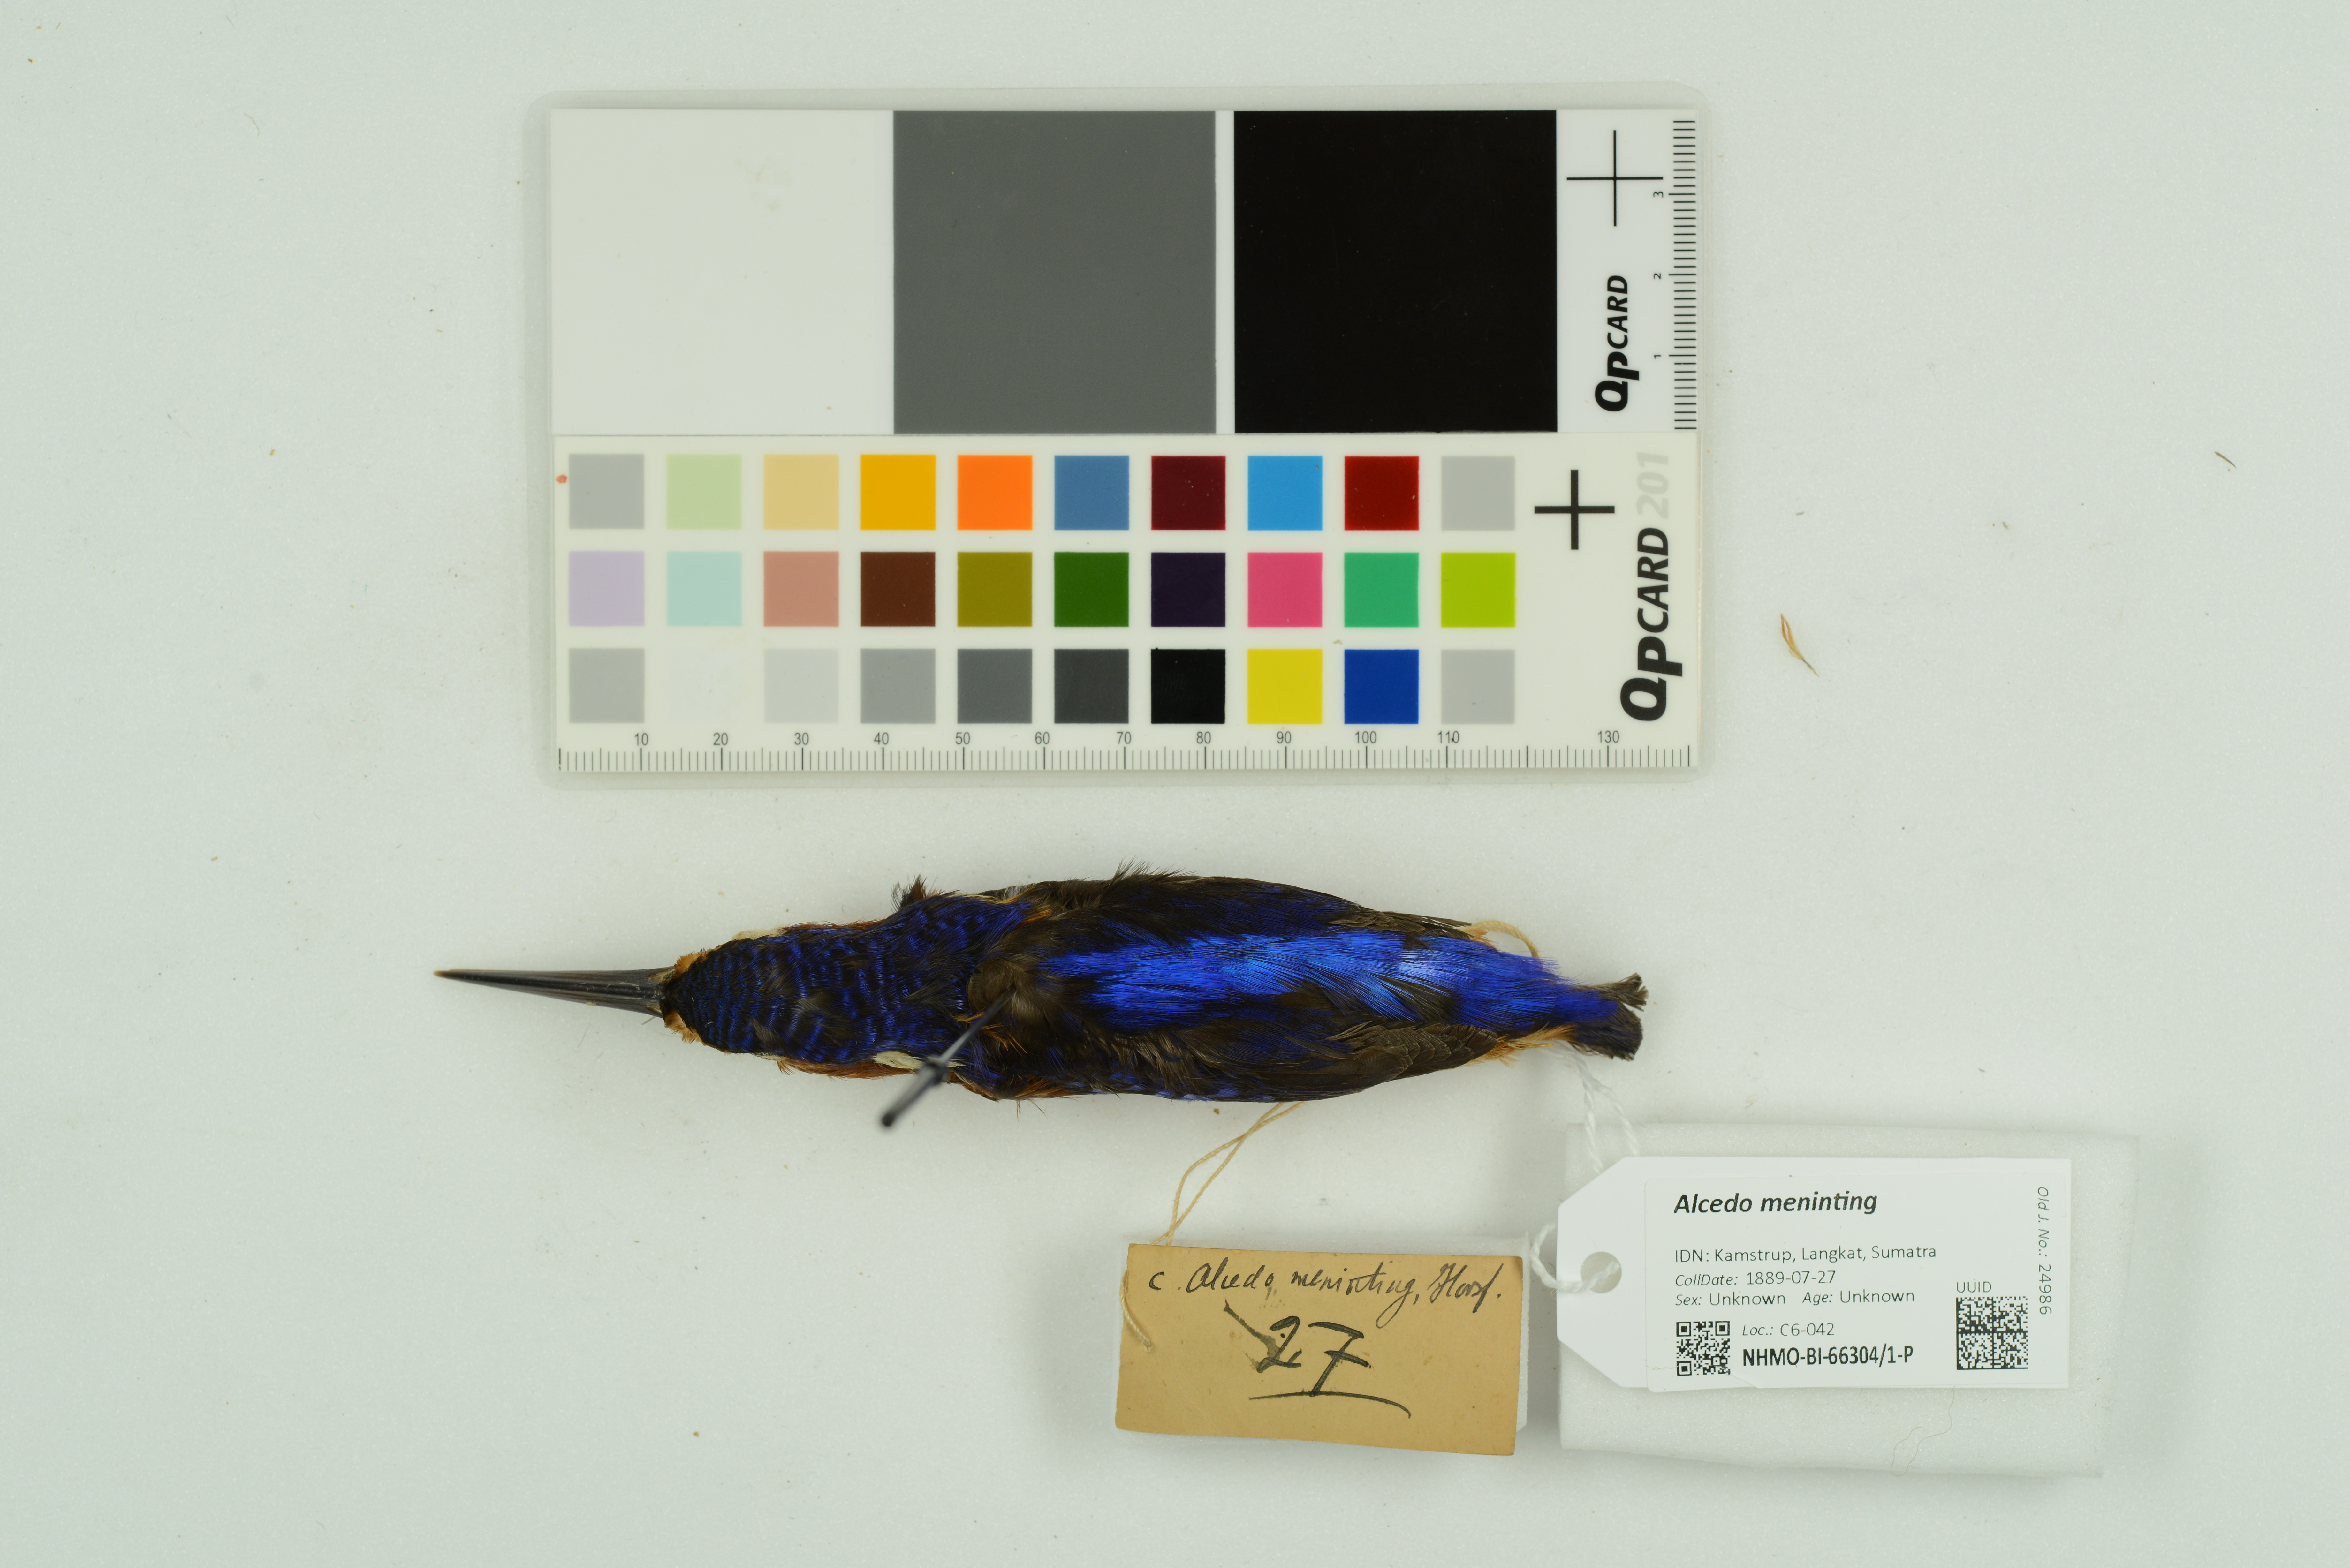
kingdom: Animalia
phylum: Chordata
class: Aves
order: Coraciiformes
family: Alcedinidae
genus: Alcedo
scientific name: Alcedo meninting
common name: Blue-eared kingfisher
